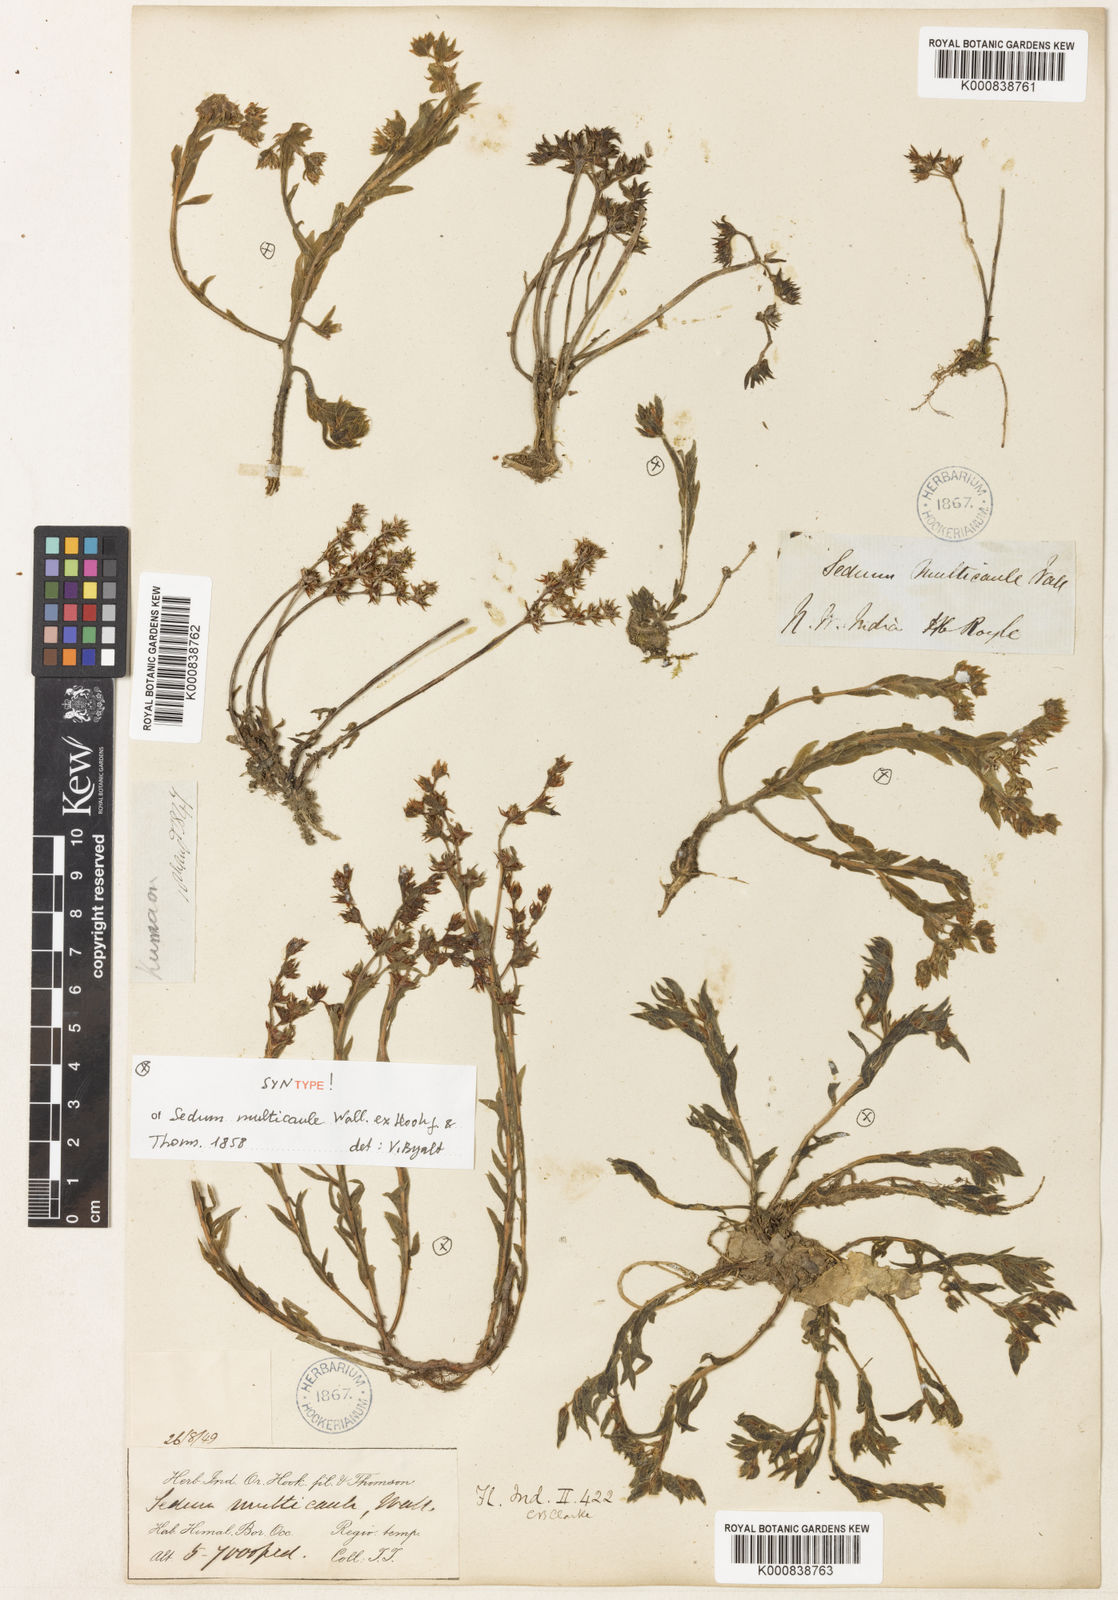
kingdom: Plantae
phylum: Tracheophyta
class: Magnoliopsida
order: Saxifragales
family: Crassulaceae
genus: Sedum
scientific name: Sedum
